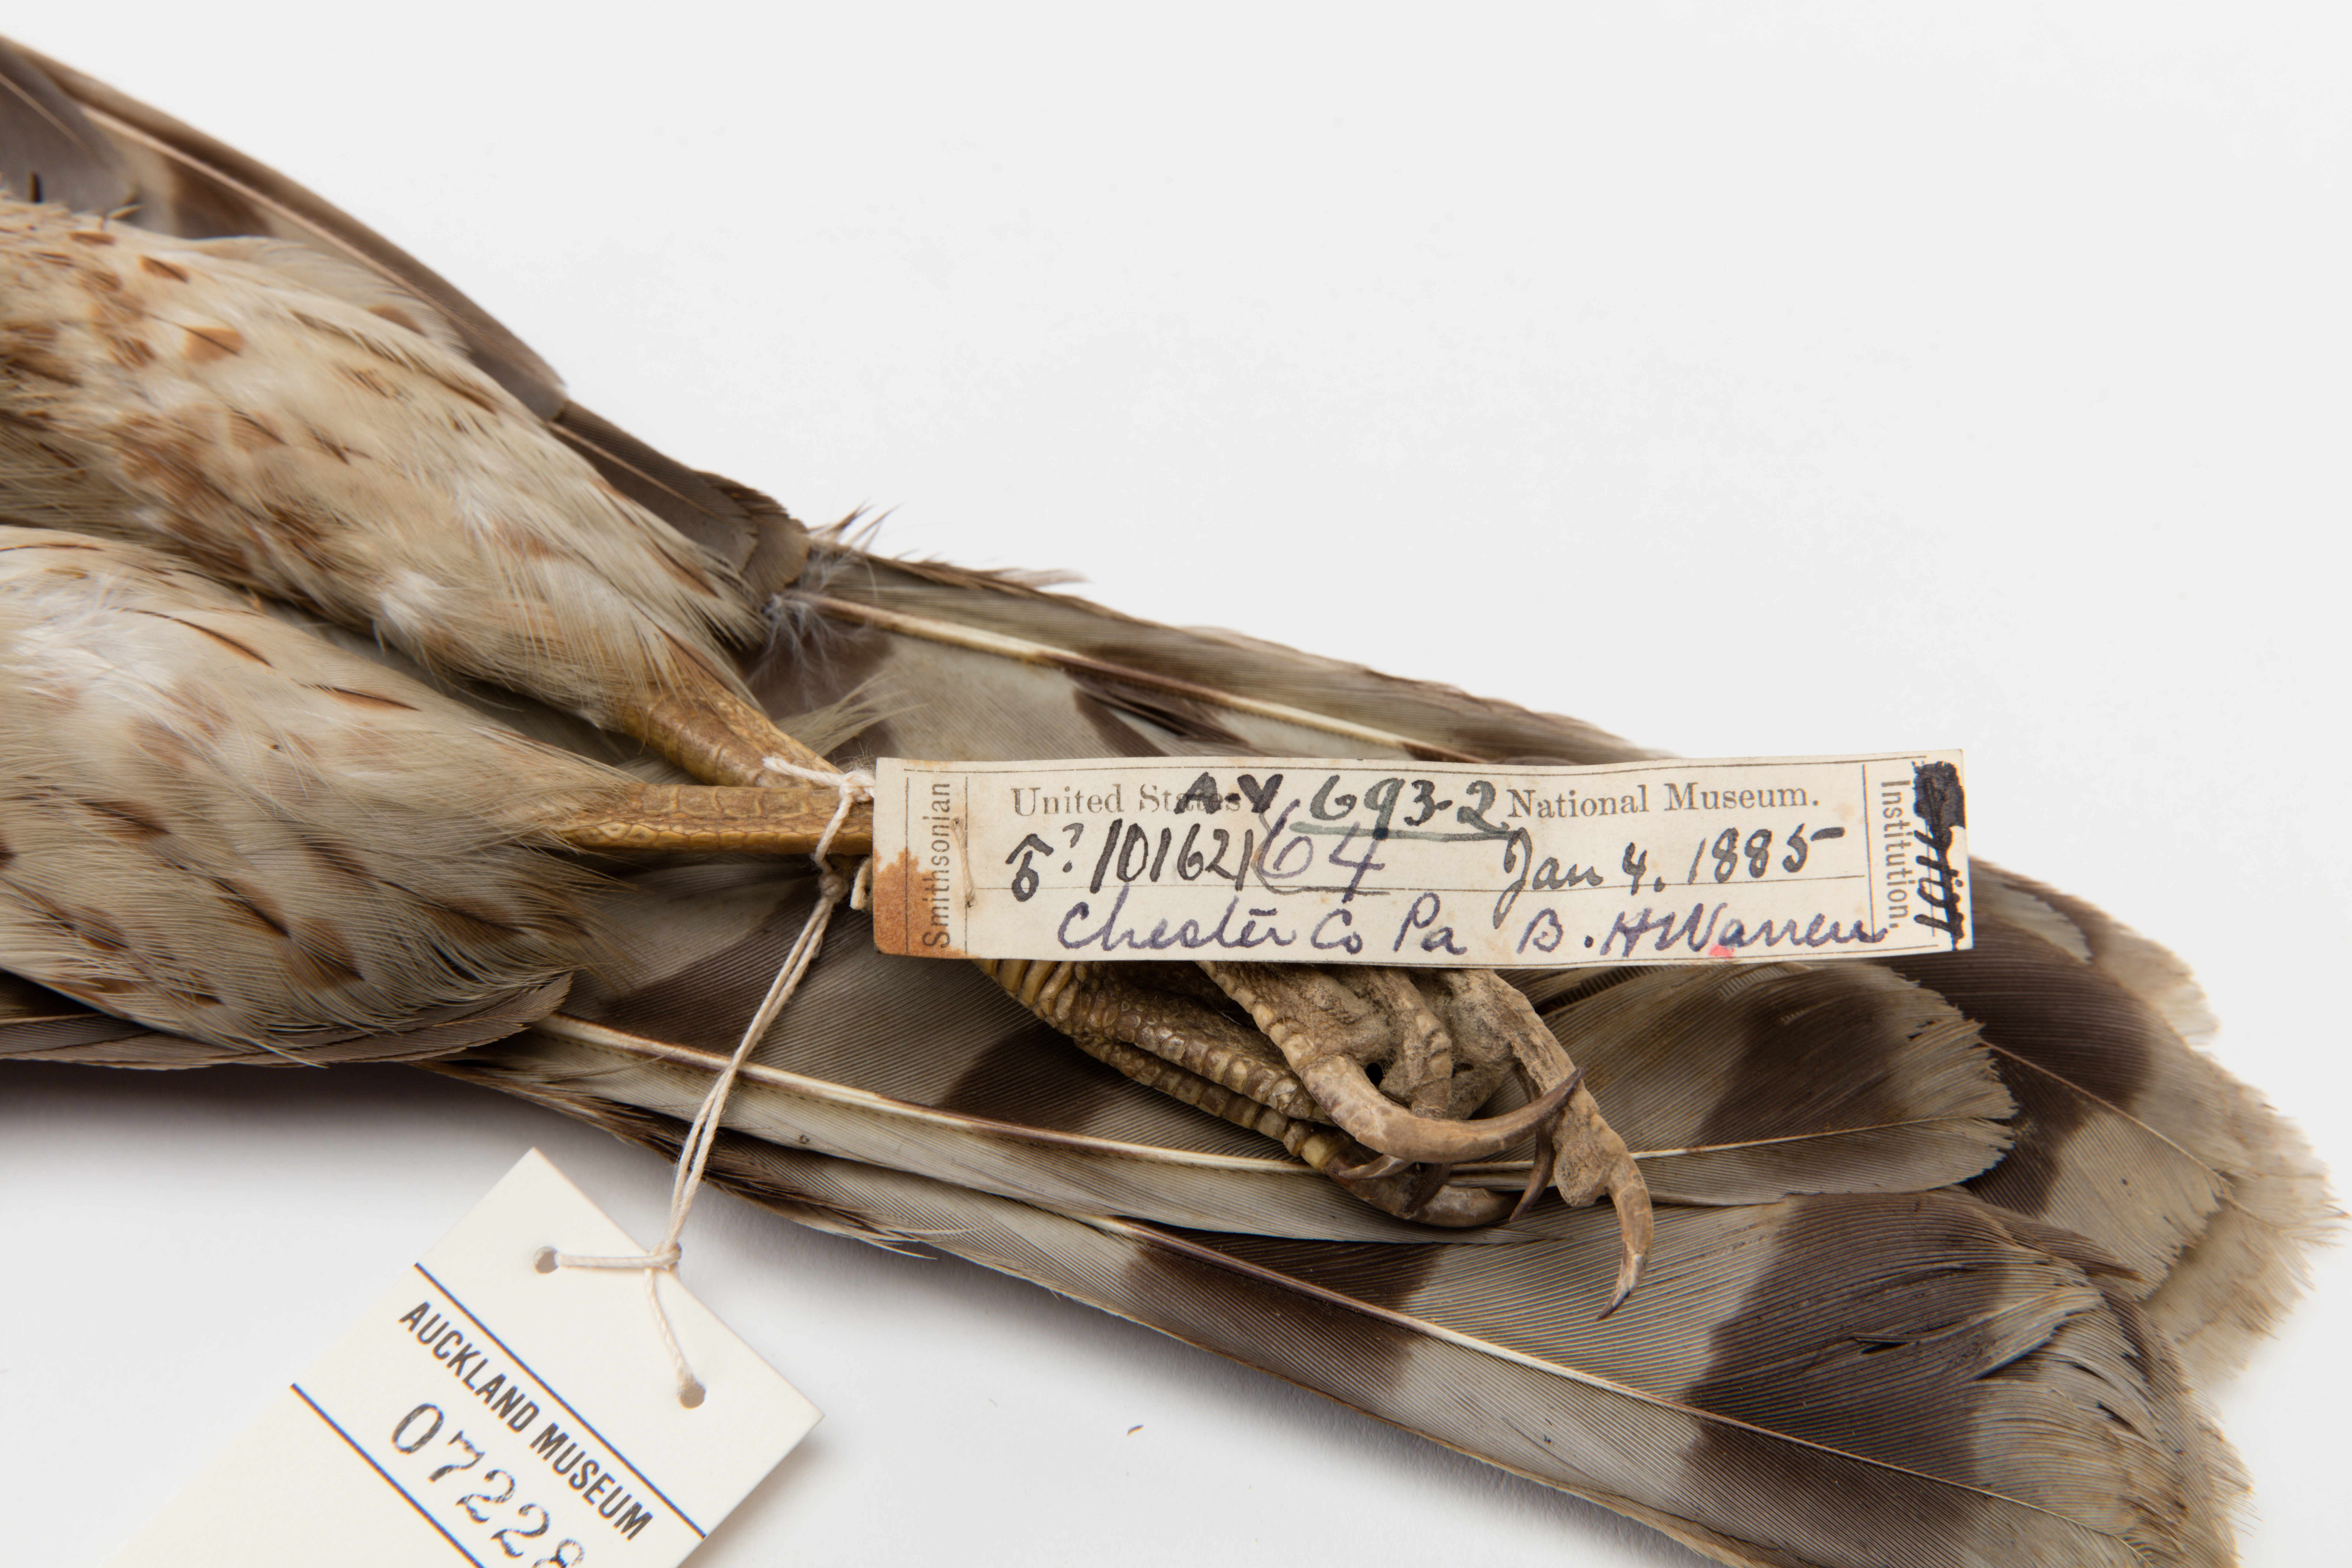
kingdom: Animalia
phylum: Chordata
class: Aves
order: Accipitriformes
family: Accipitridae
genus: Accipiter
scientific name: Accipiter cooperii
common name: Cooper's hawk
